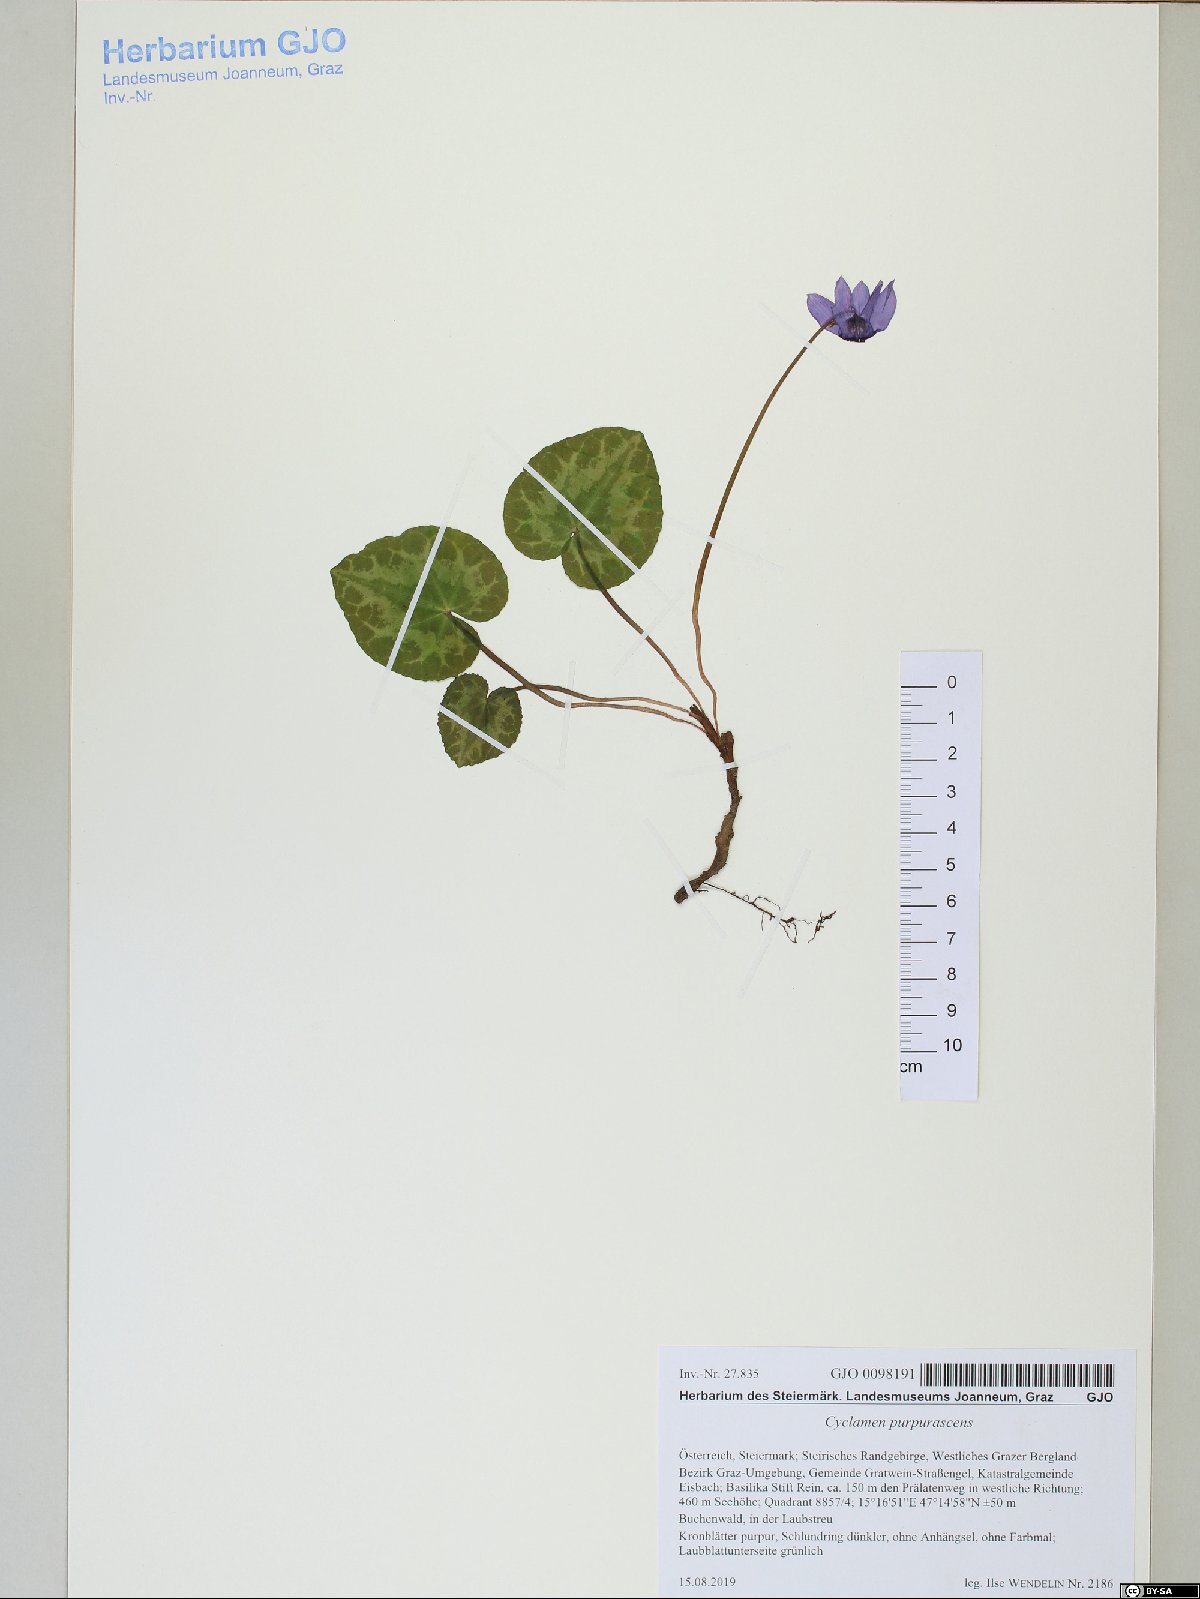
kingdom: Plantae
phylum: Tracheophyta
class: Magnoliopsida
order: Ericales
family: Primulaceae
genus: Cyclamen
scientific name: Cyclamen purpurascens
